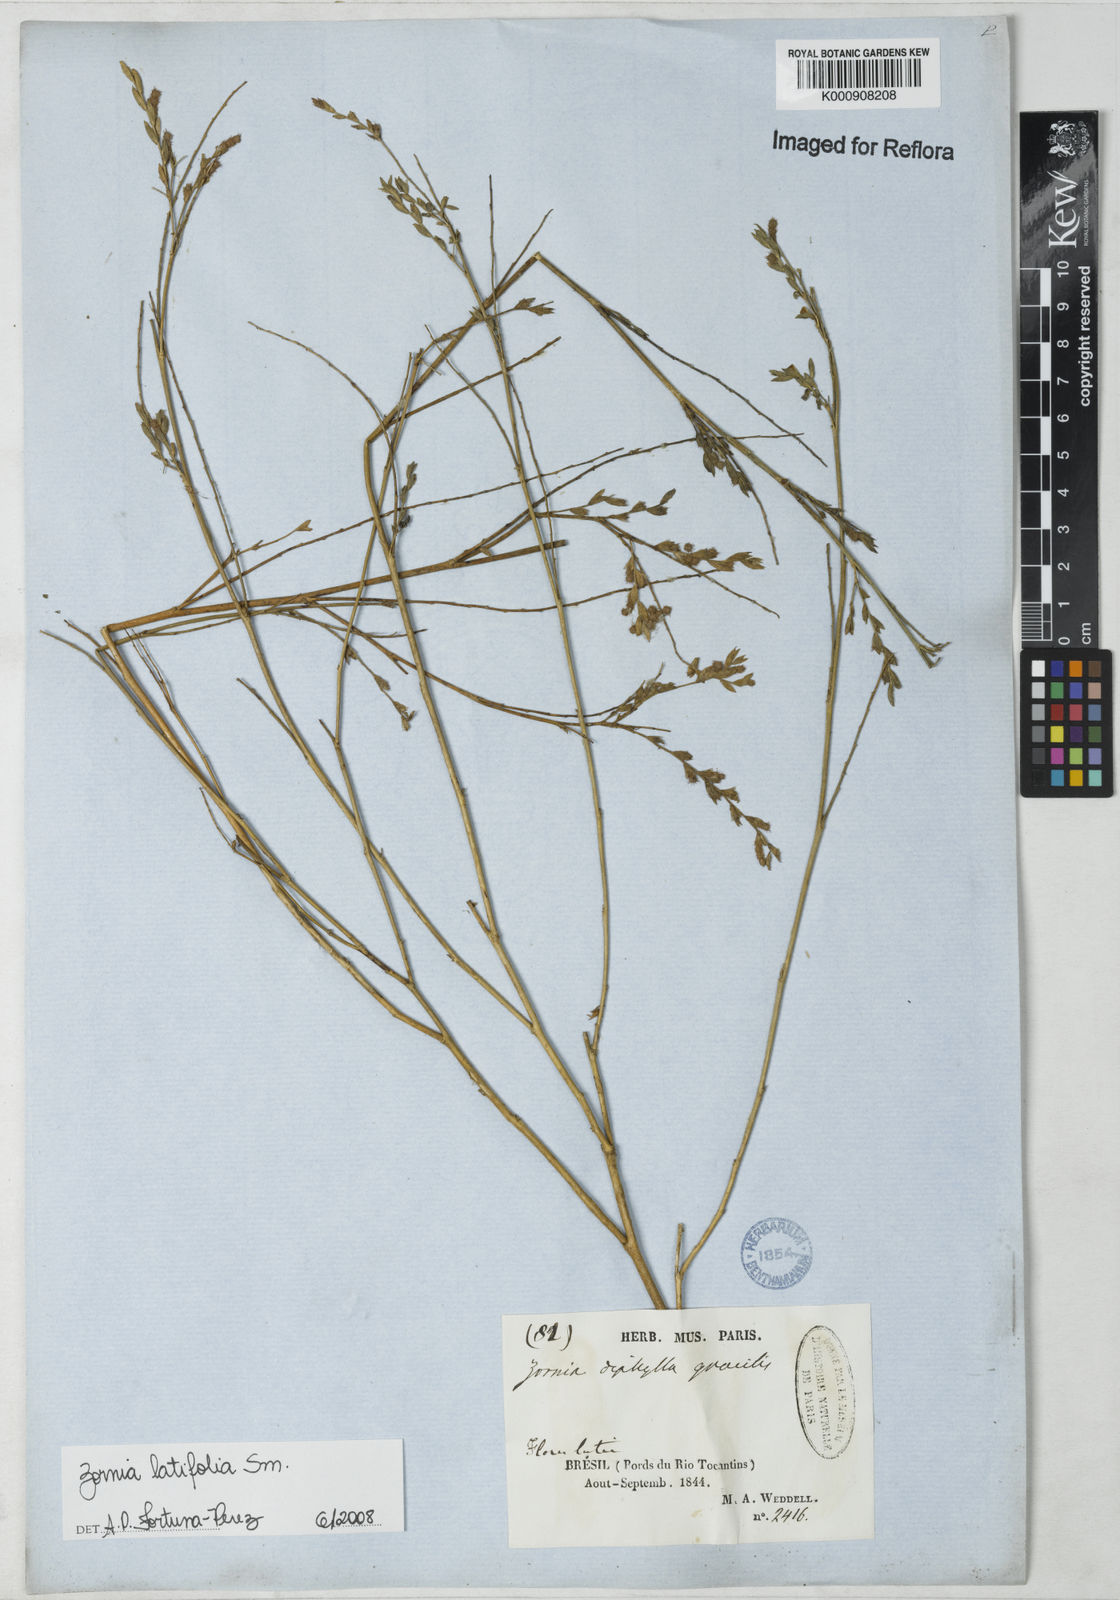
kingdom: Plantae
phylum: Tracheophyta
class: Magnoliopsida
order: Fabales
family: Fabaceae
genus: Zornia
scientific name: Zornia latifolia
